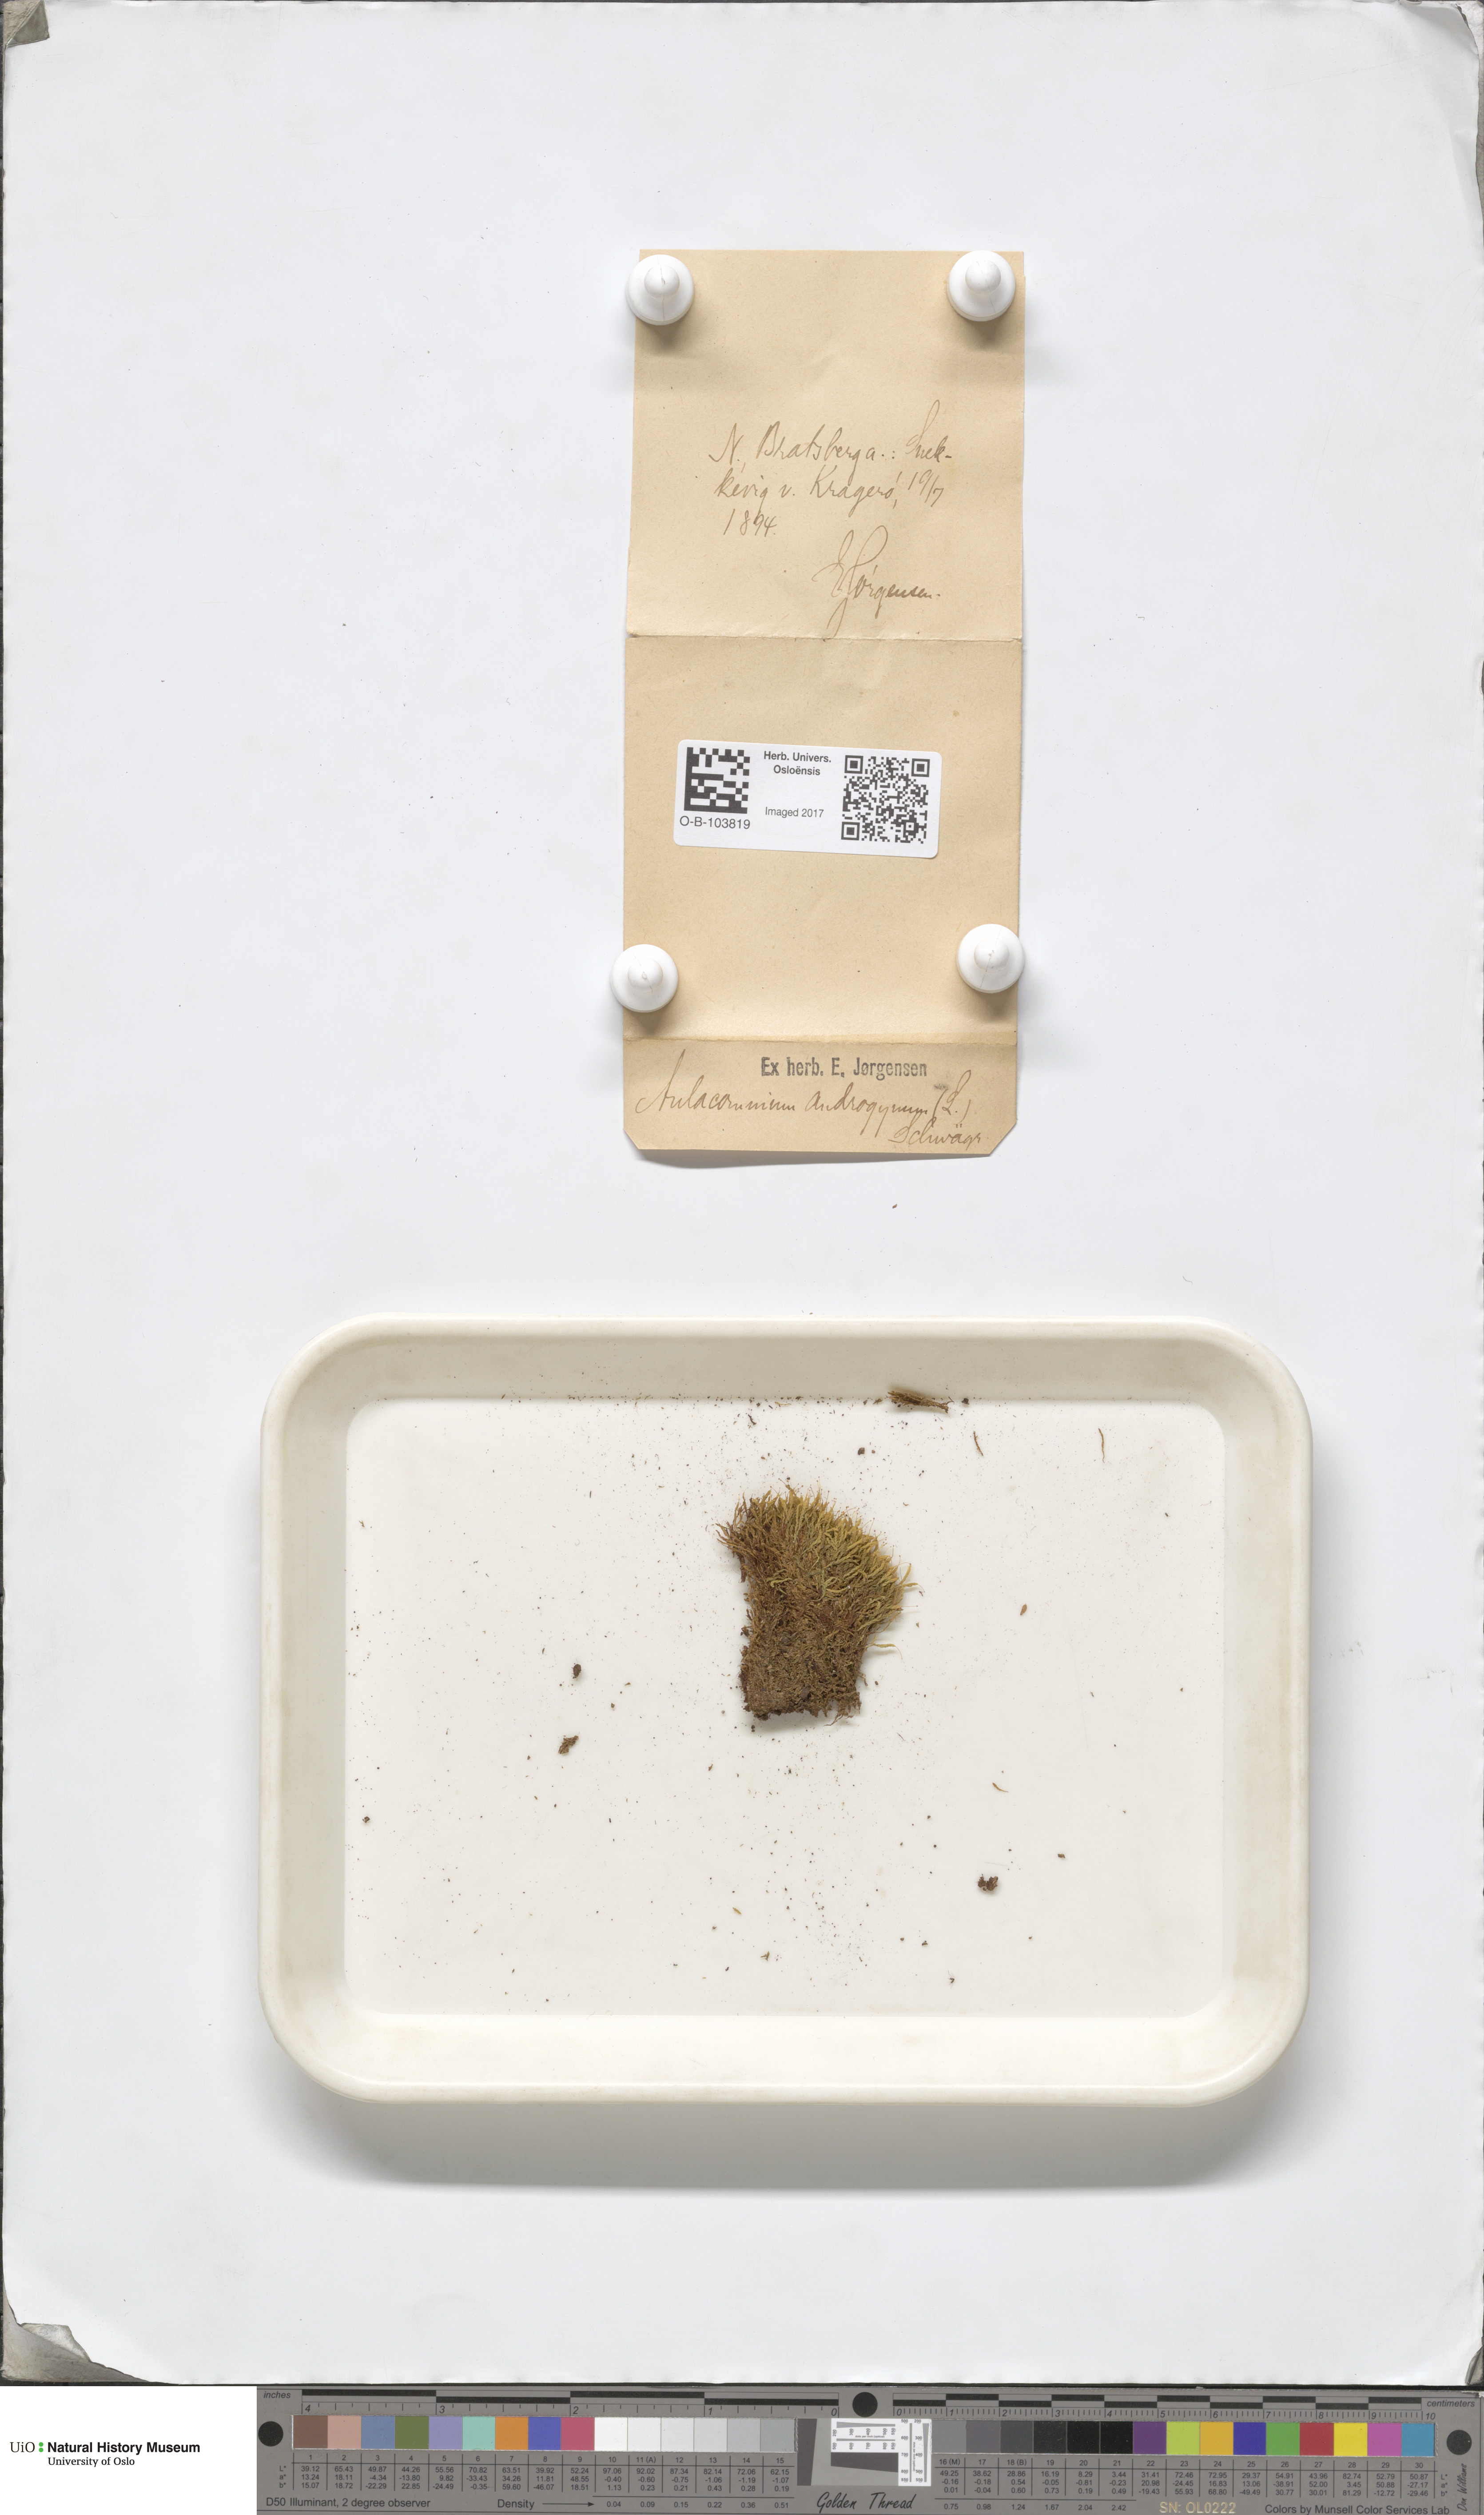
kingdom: Plantae
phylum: Bryophyta
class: Bryopsida
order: Aulacomniales
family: Aulacomniaceae
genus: Aulacomnium
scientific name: Aulacomnium androgynum
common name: Little groove moss
